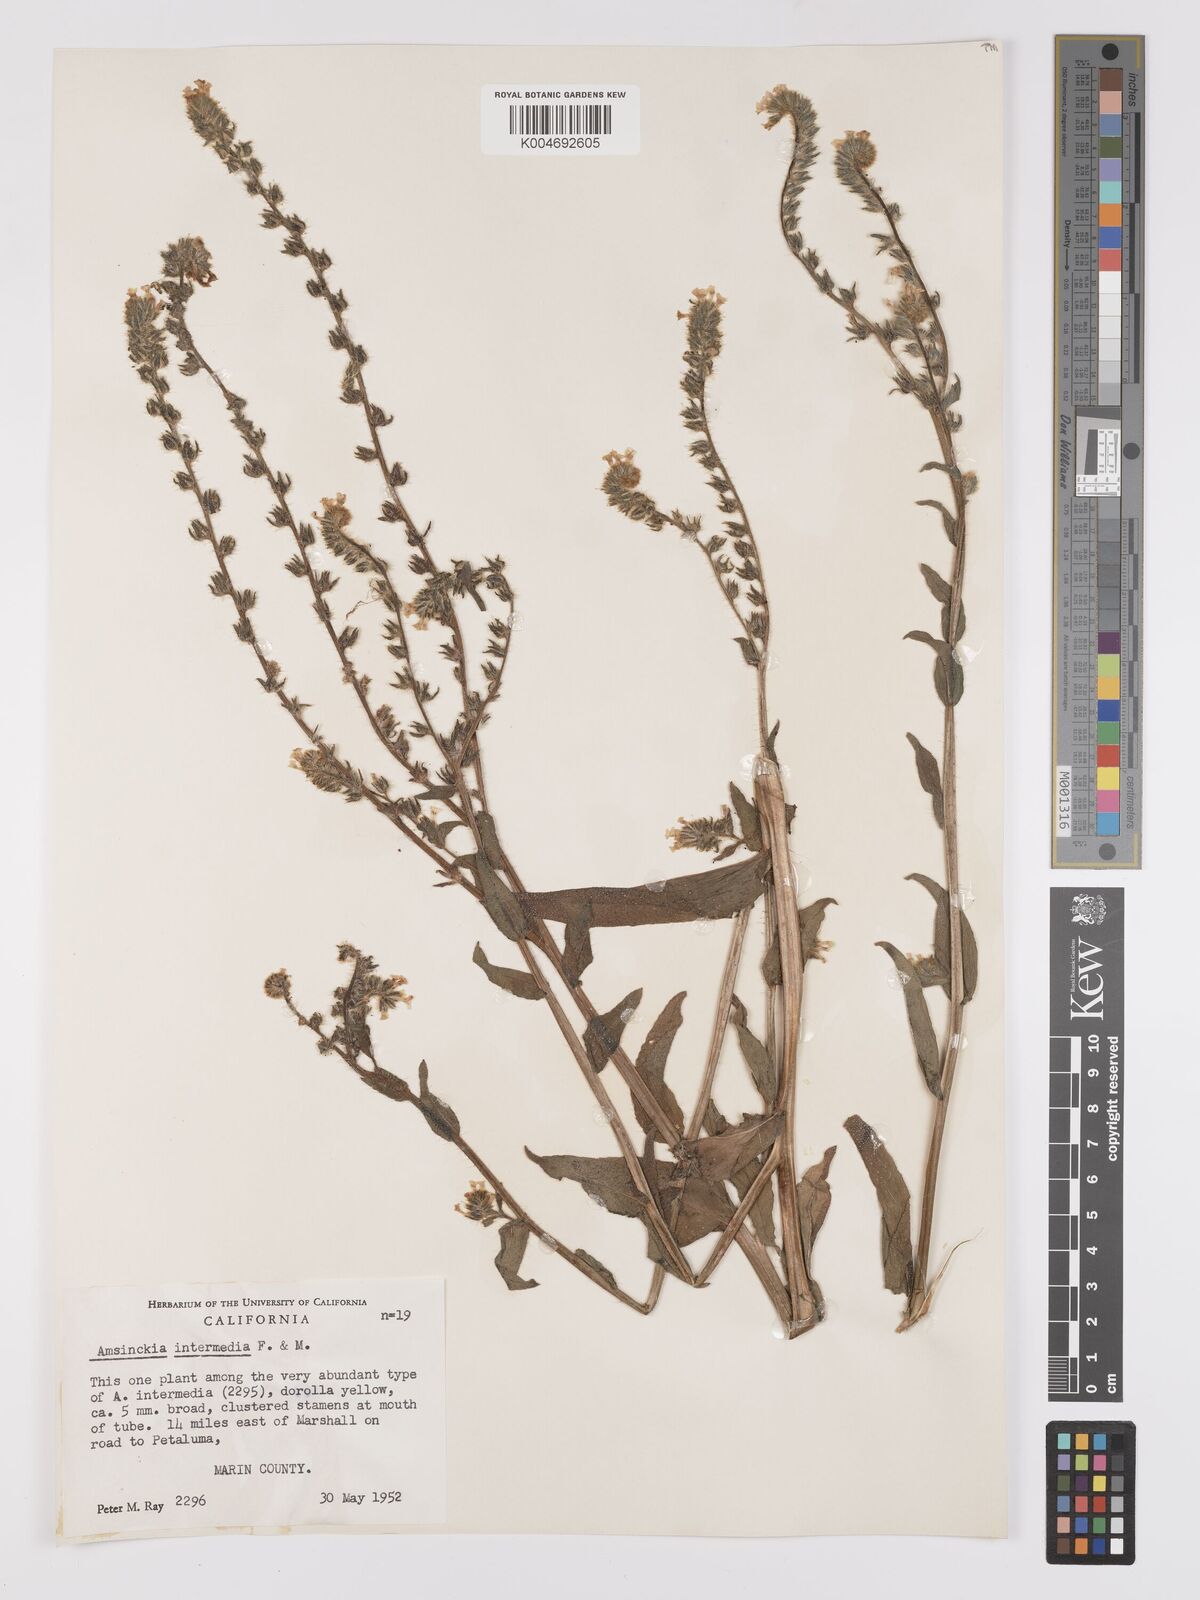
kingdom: Plantae
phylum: Tracheophyta
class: Magnoliopsida
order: Boraginales
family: Boraginaceae
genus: Amsinckia
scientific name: Amsinckia menziesii
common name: Menzies' fiddleneck
